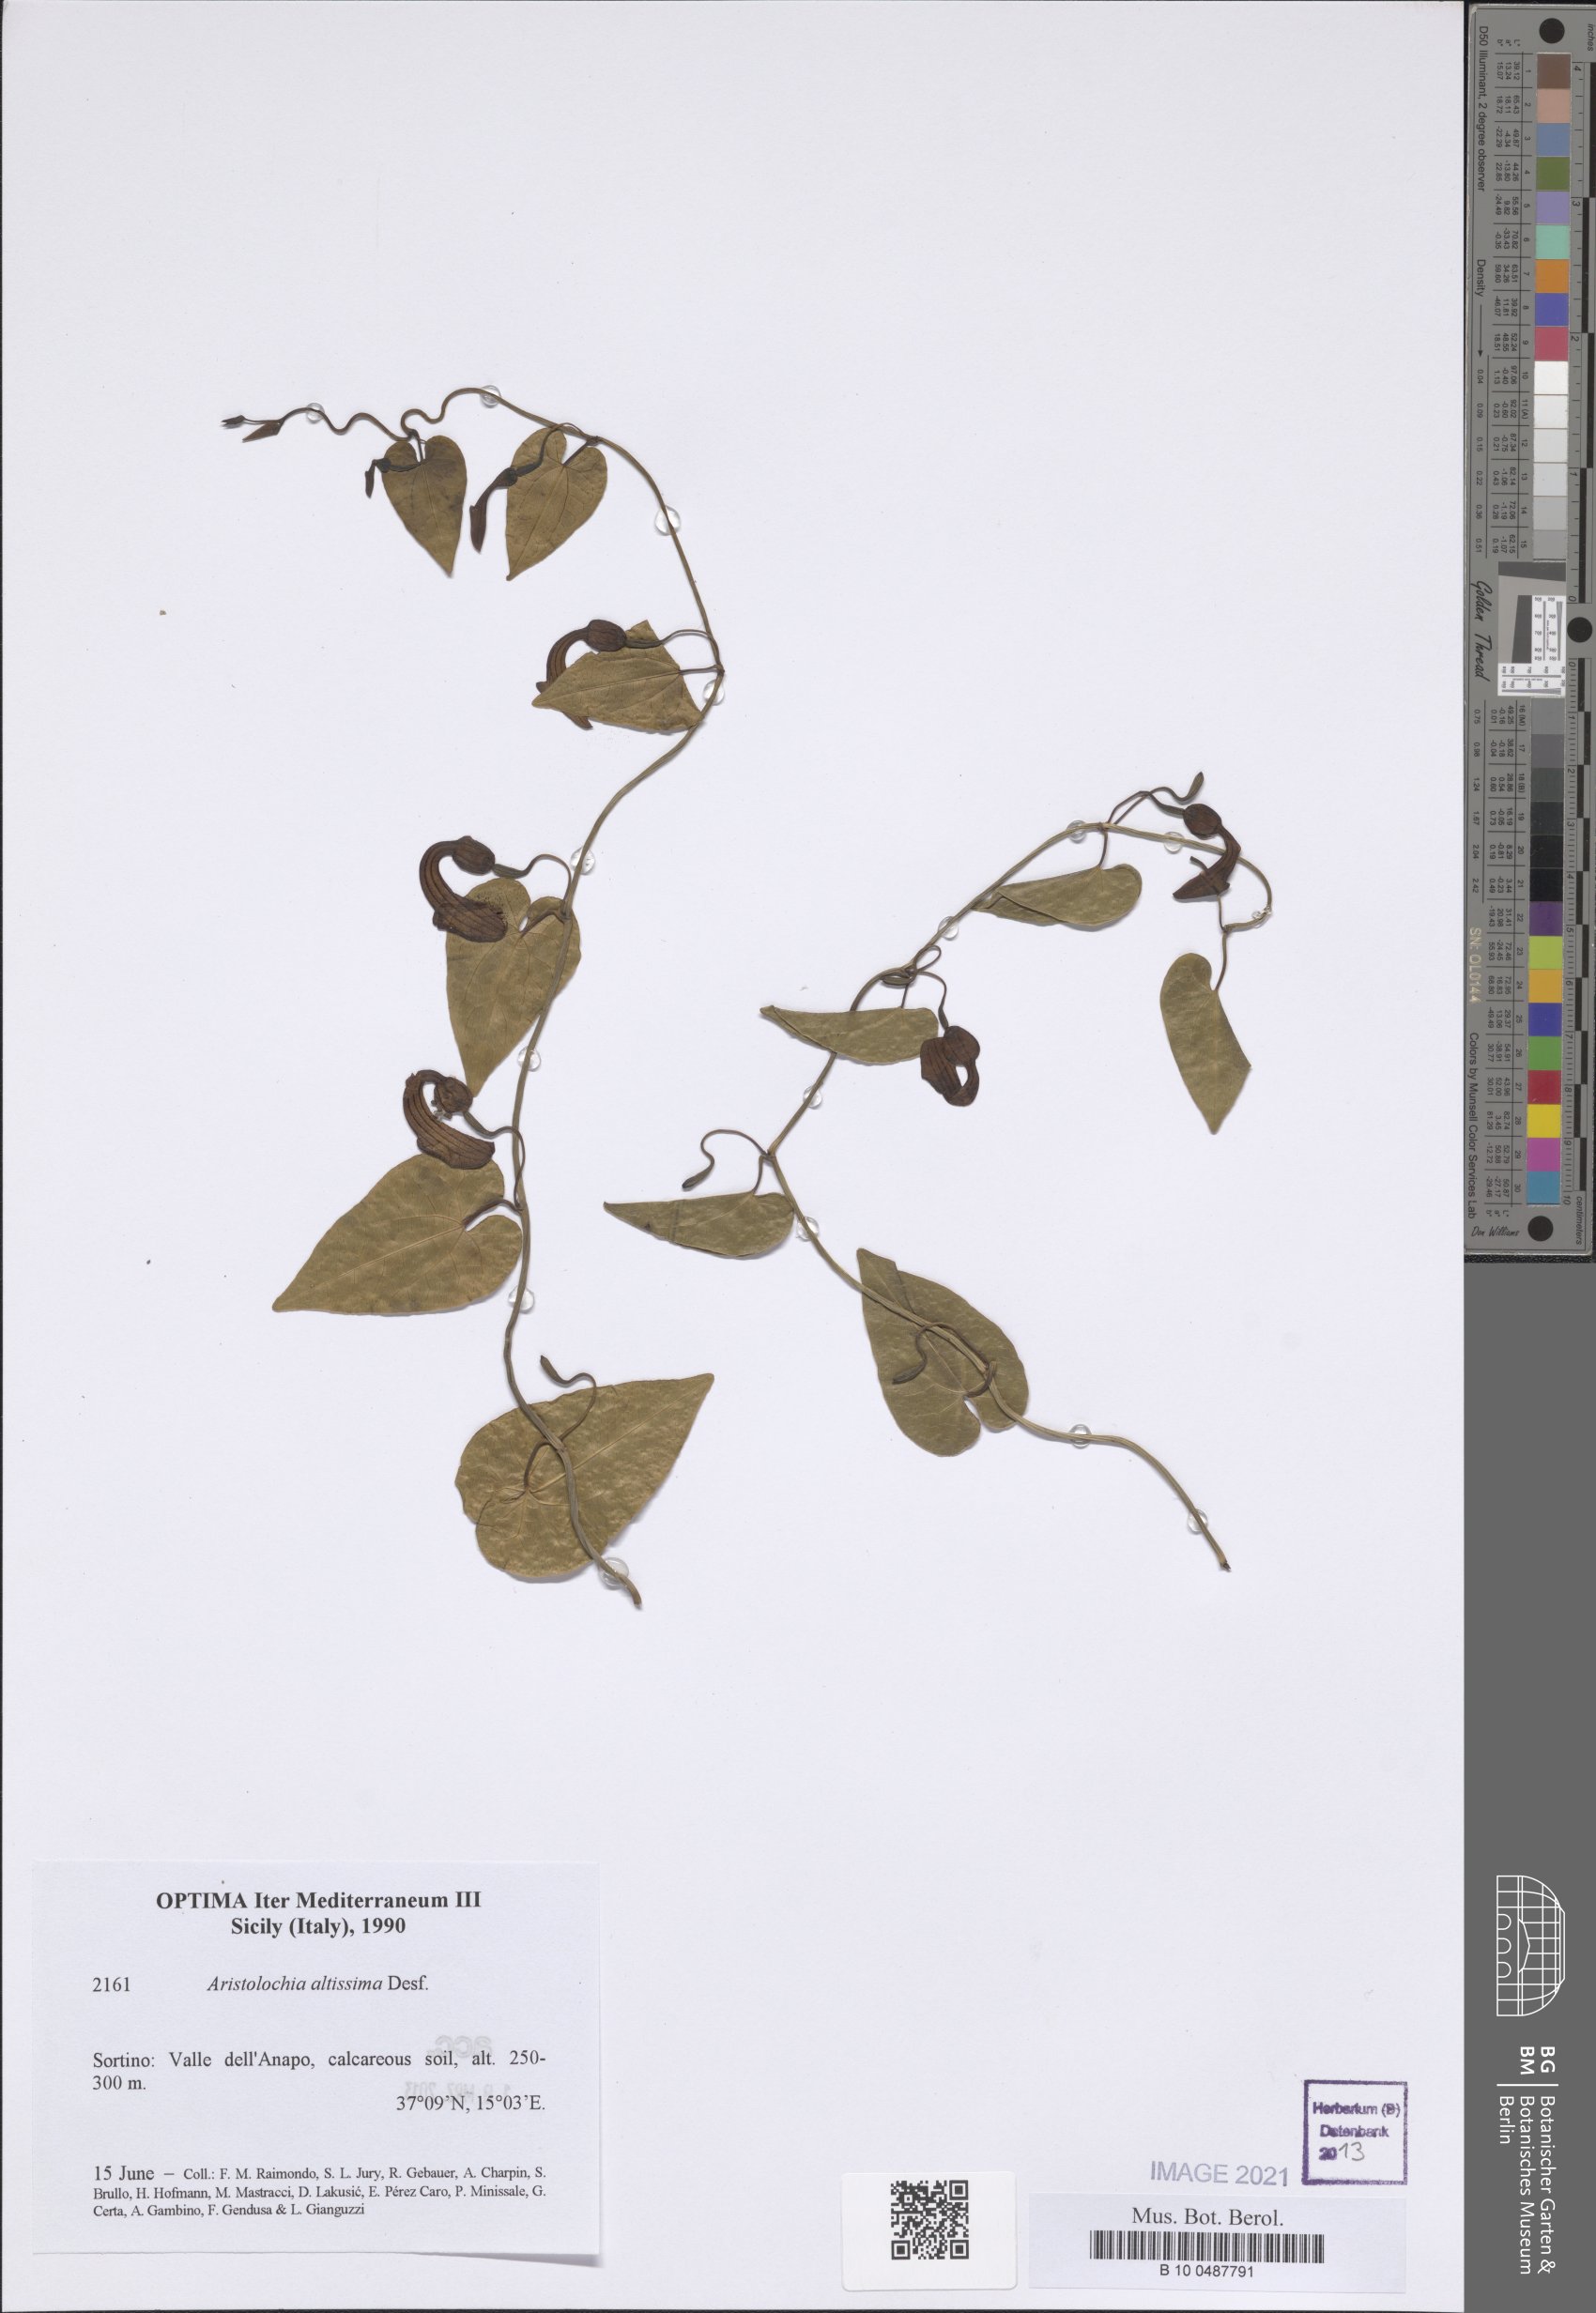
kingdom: Plantae
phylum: Tracheophyta
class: Magnoliopsida
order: Piperales
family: Aristolochiaceae
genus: Aristolochia
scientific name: Aristolochia sempervirens
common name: Long birthwort
